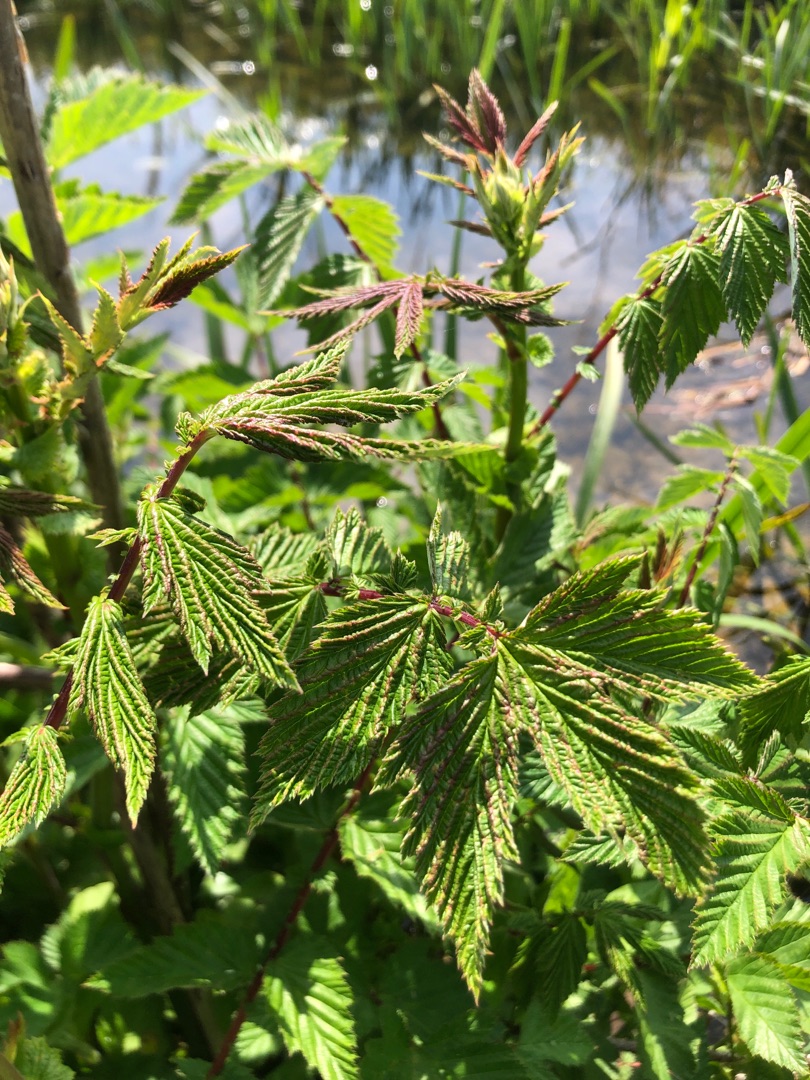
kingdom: Plantae
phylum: Tracheophyta
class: Magnoliopsida
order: Rosales
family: Rosaceae
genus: Filipendula
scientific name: Filipendula ulmaria
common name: Almindelig mjødurt
